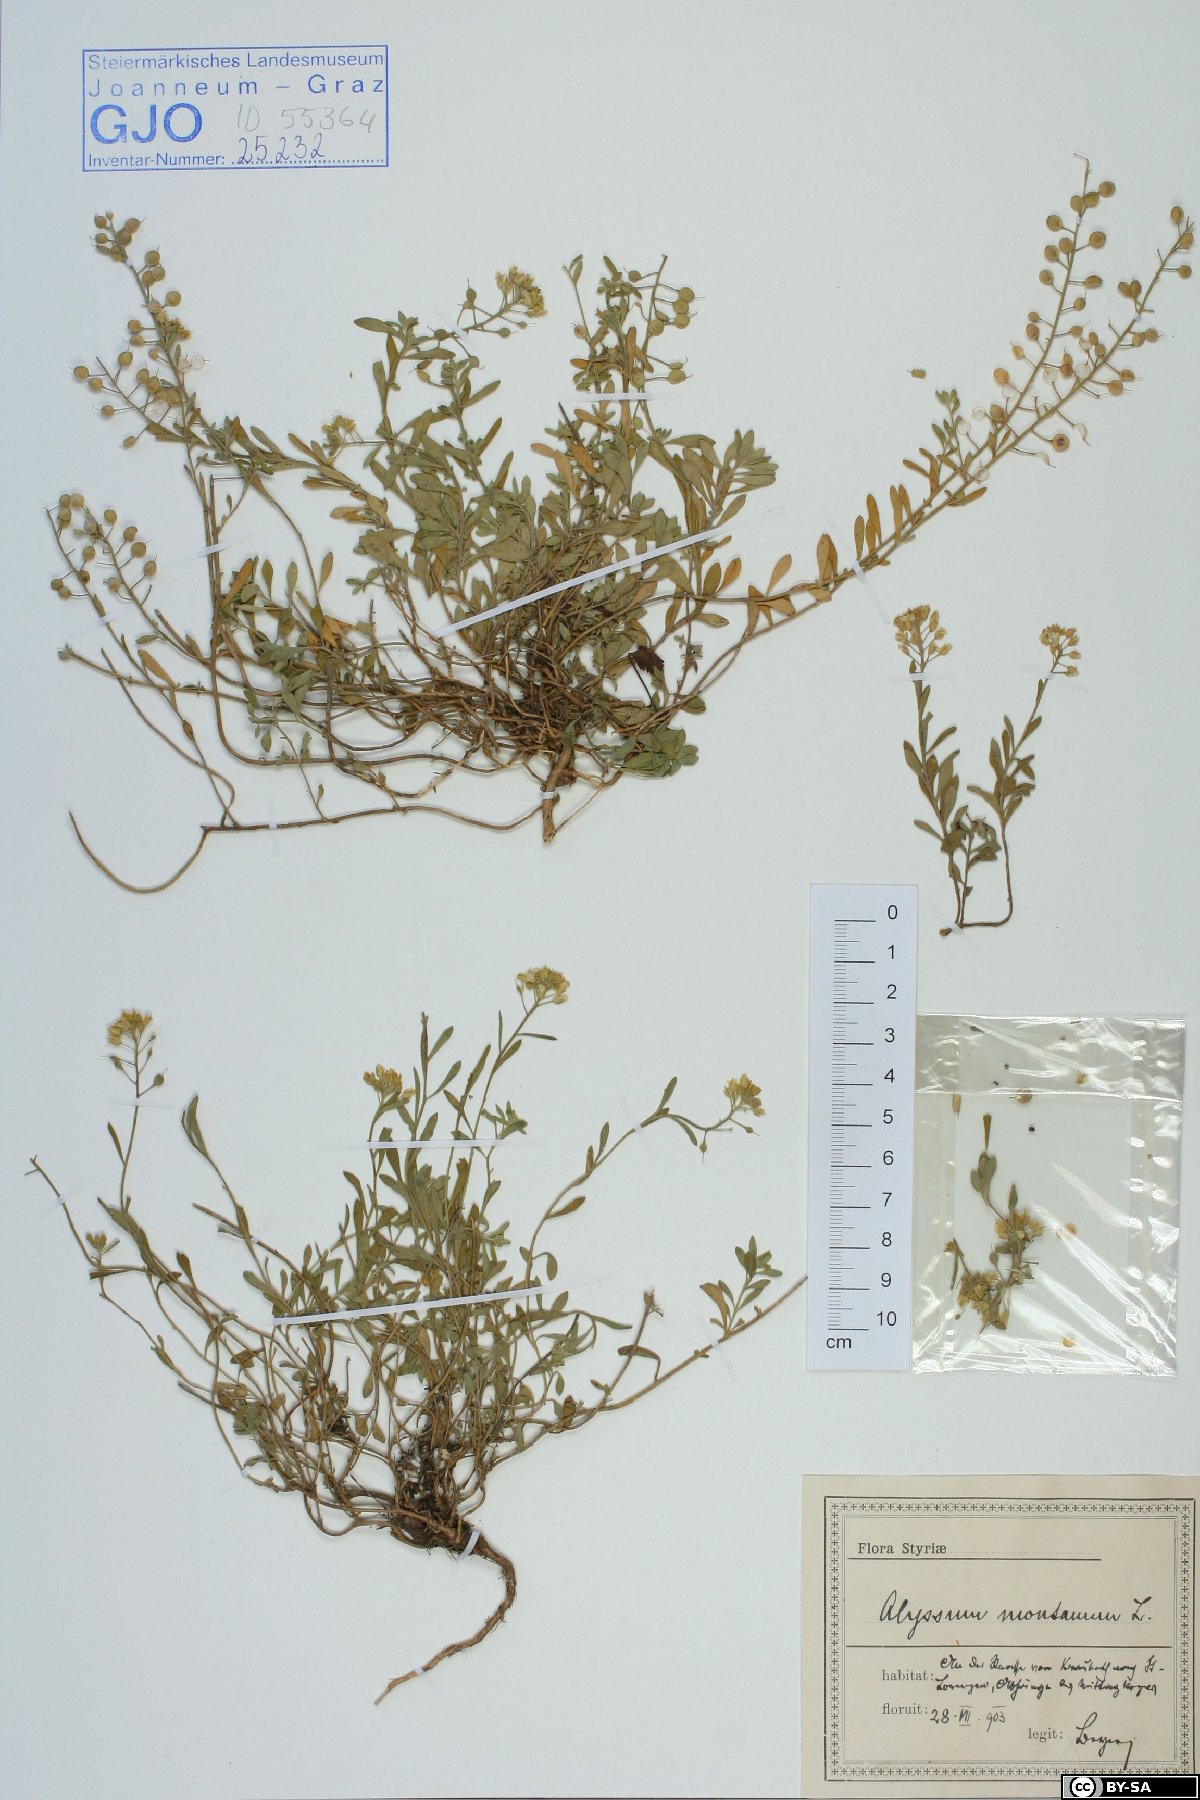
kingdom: Plantae
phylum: Tracheophyta
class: Magnoliopsida
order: Brassicales
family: Brassicaceae
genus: Alyssum
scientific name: Alyssum montanum
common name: Mountain alison
